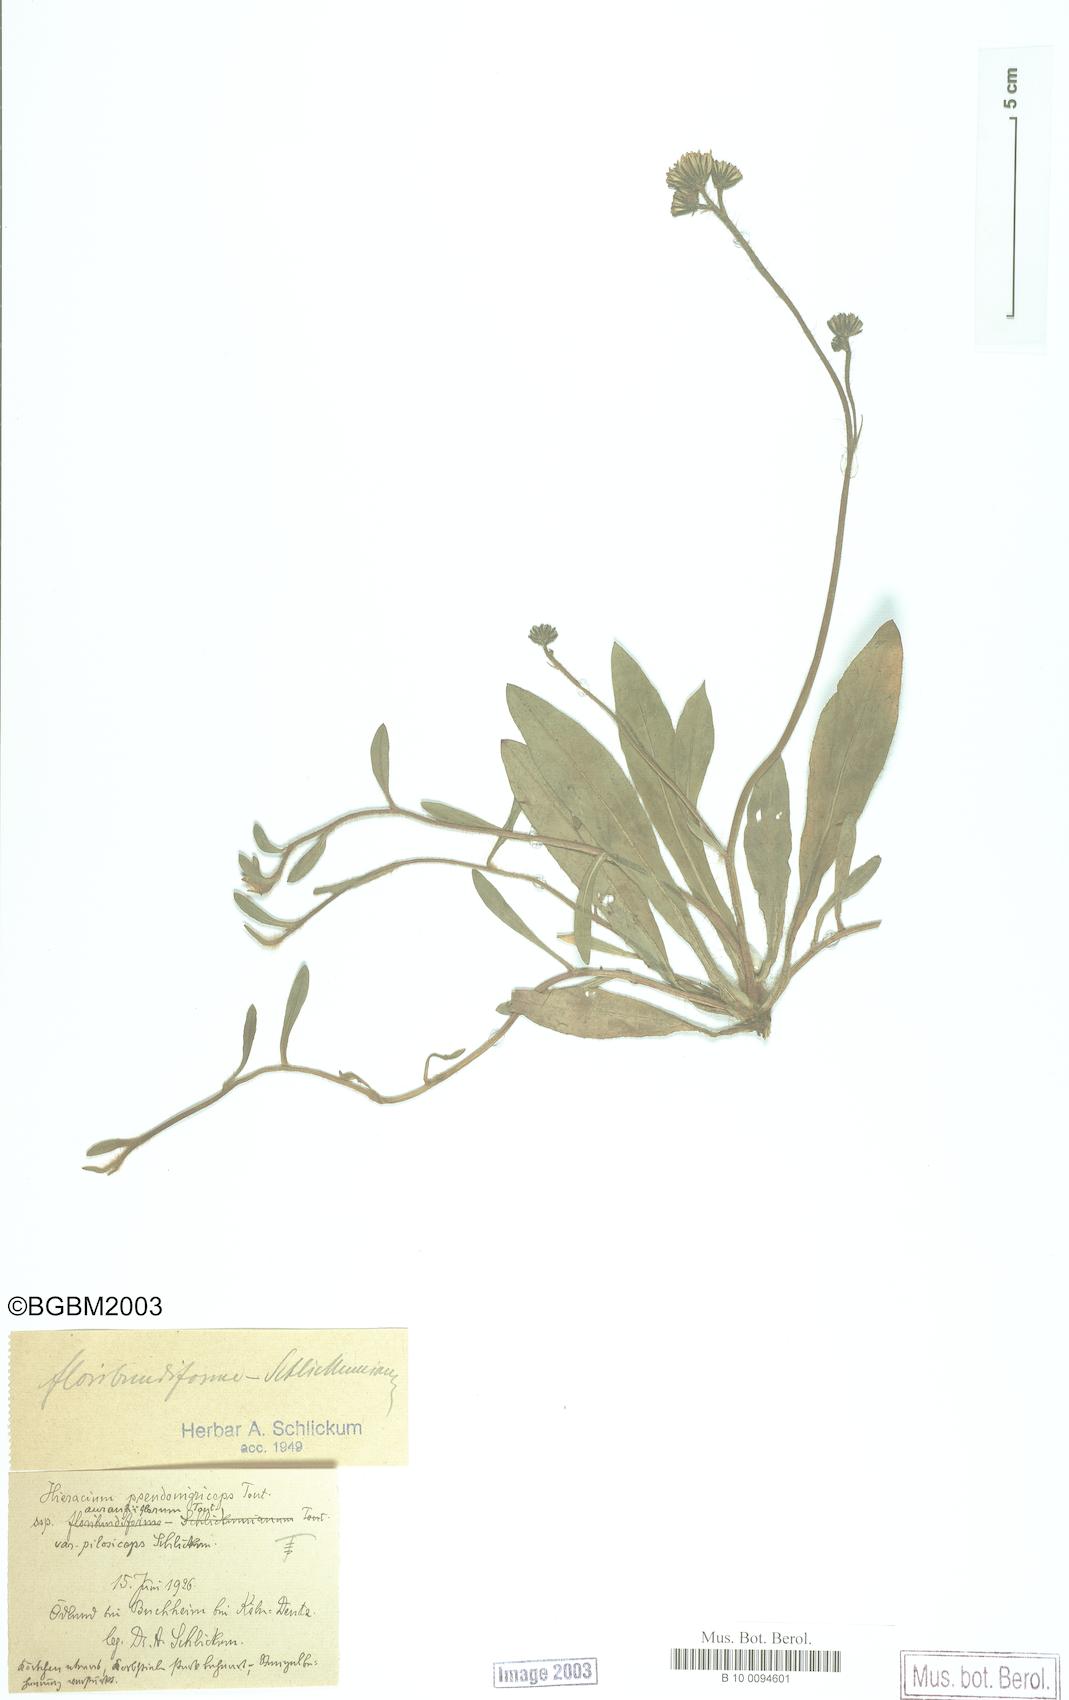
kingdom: Plantae
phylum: Tracheophyta
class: Magnoliopsida
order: Asterales
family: Asteraceae
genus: Hieracium
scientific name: Hieracium
